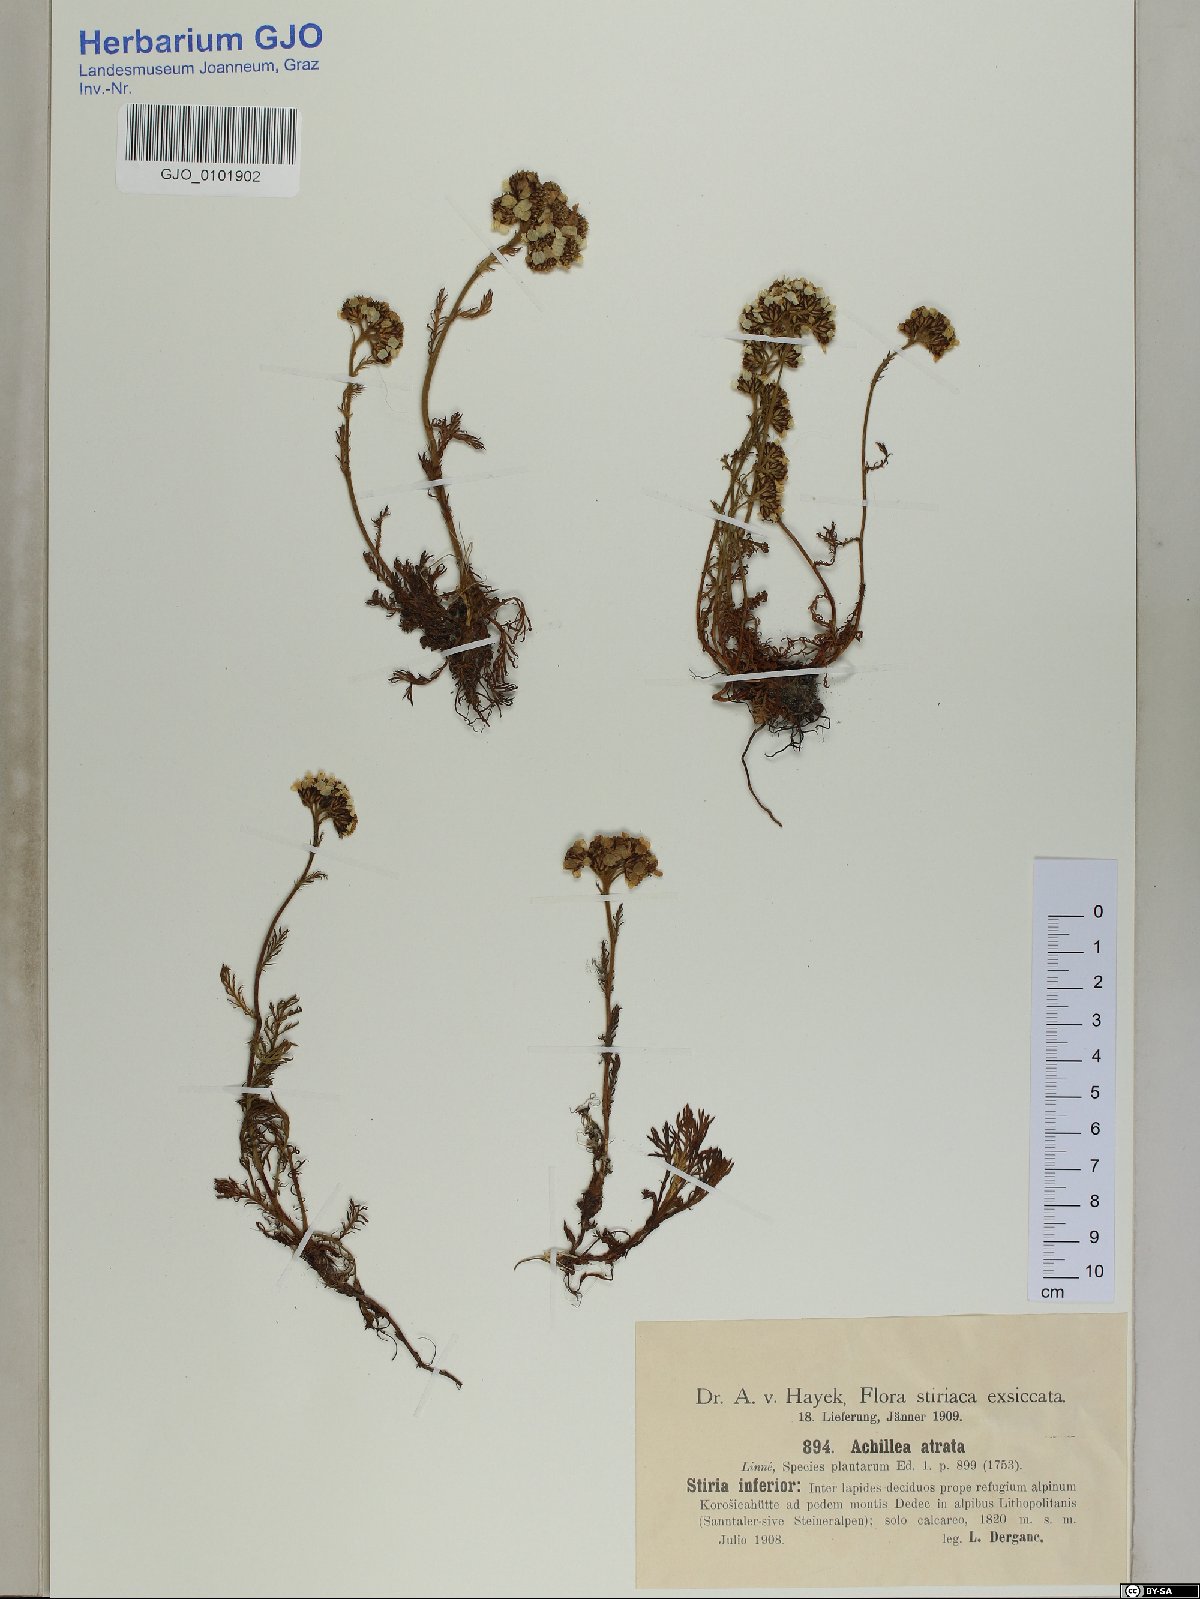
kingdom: Plantae
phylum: Tracheophyta
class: Magnoliopsida
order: Asterales
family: Asteraceae
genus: Achillea
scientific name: Achillea atrata
